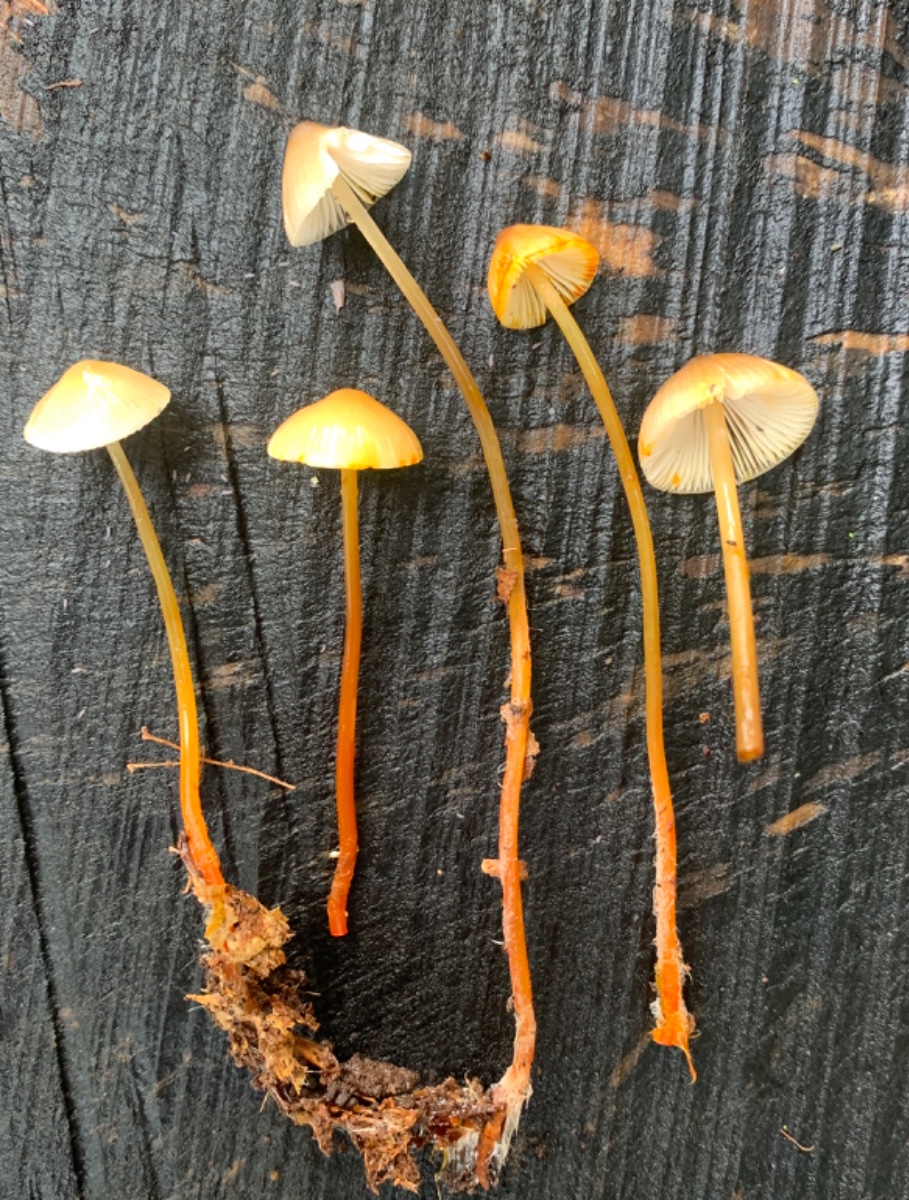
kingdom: Fungi
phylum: Basidiomycota
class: Agaricomycetes
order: Agaricales
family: Mycenaceae
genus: Mycena
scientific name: Mycena crocata
